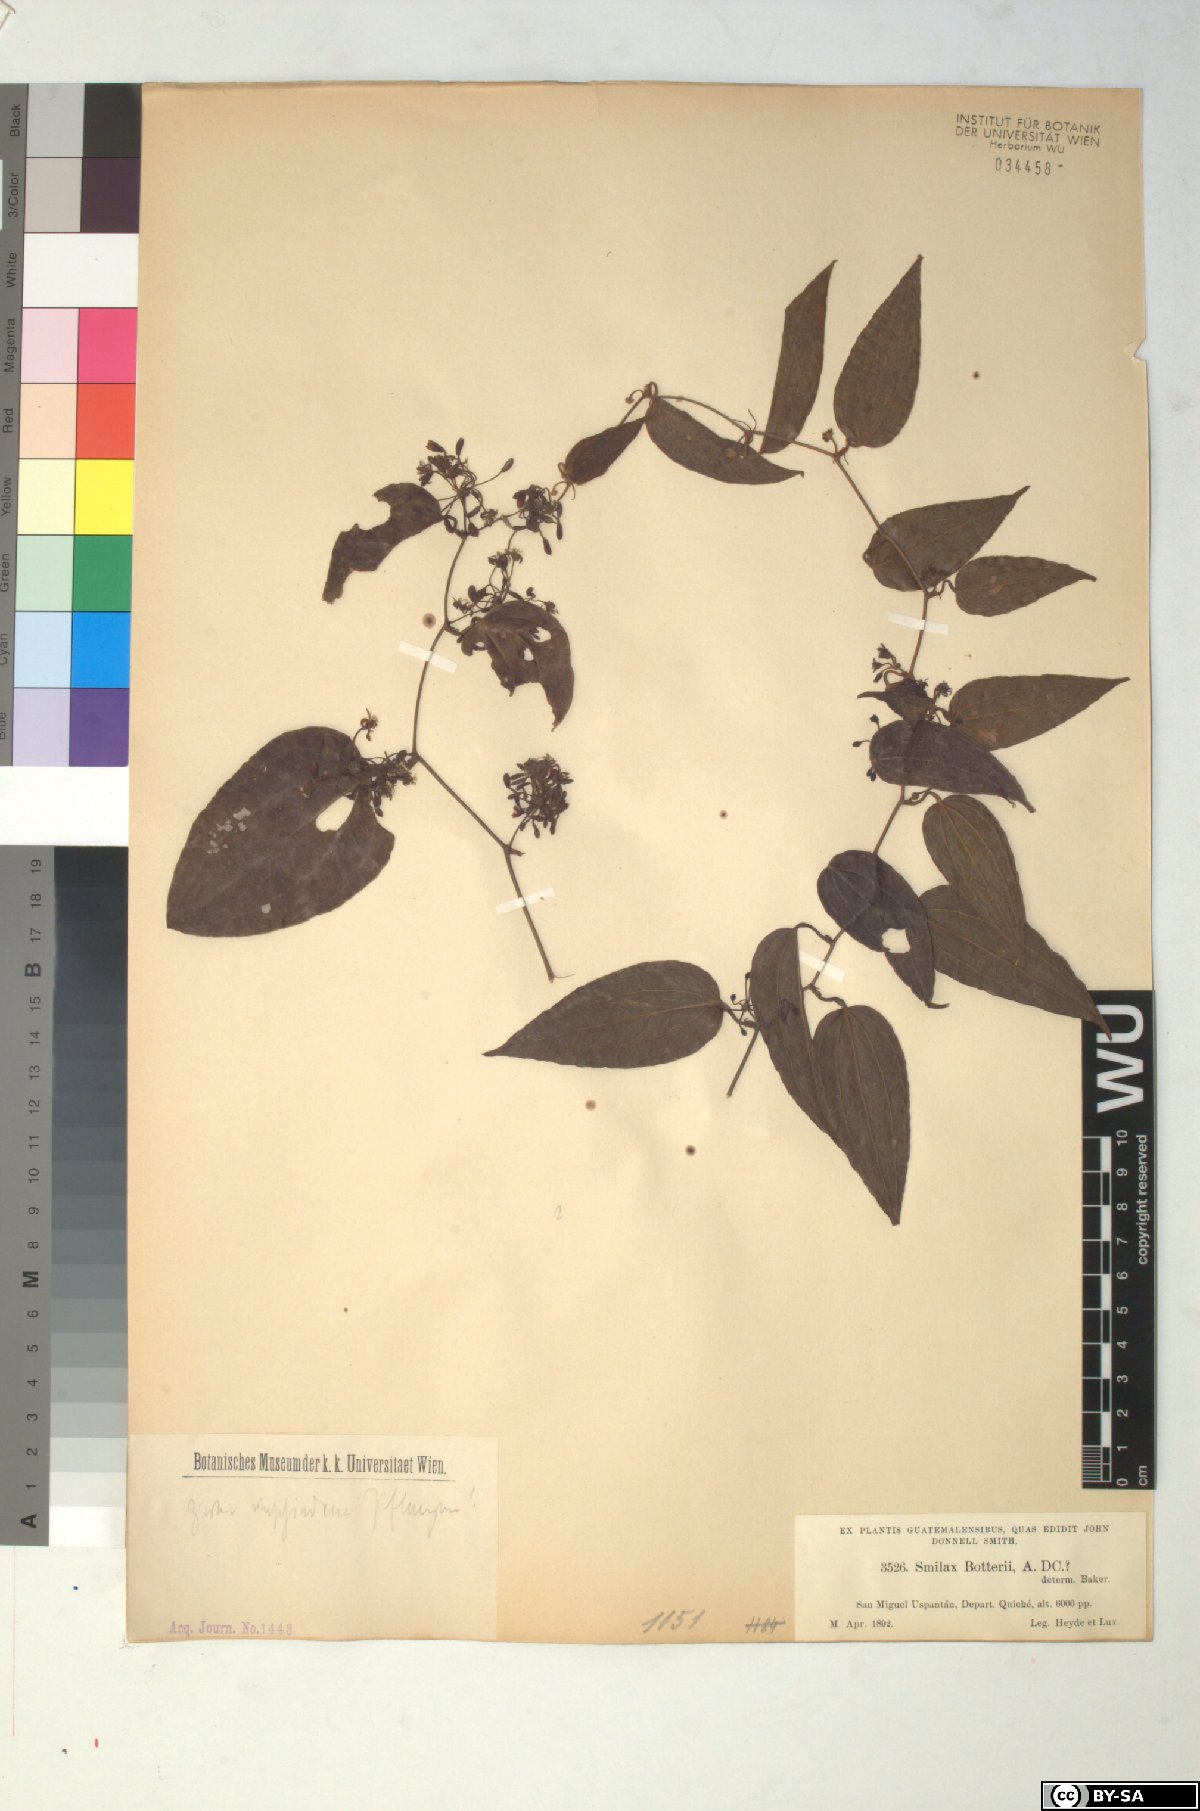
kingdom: Plantae
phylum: Tracheophyta
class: Liliopsida
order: Liliales
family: Smilacaceae
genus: Smilax
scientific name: Smilax moranensis
